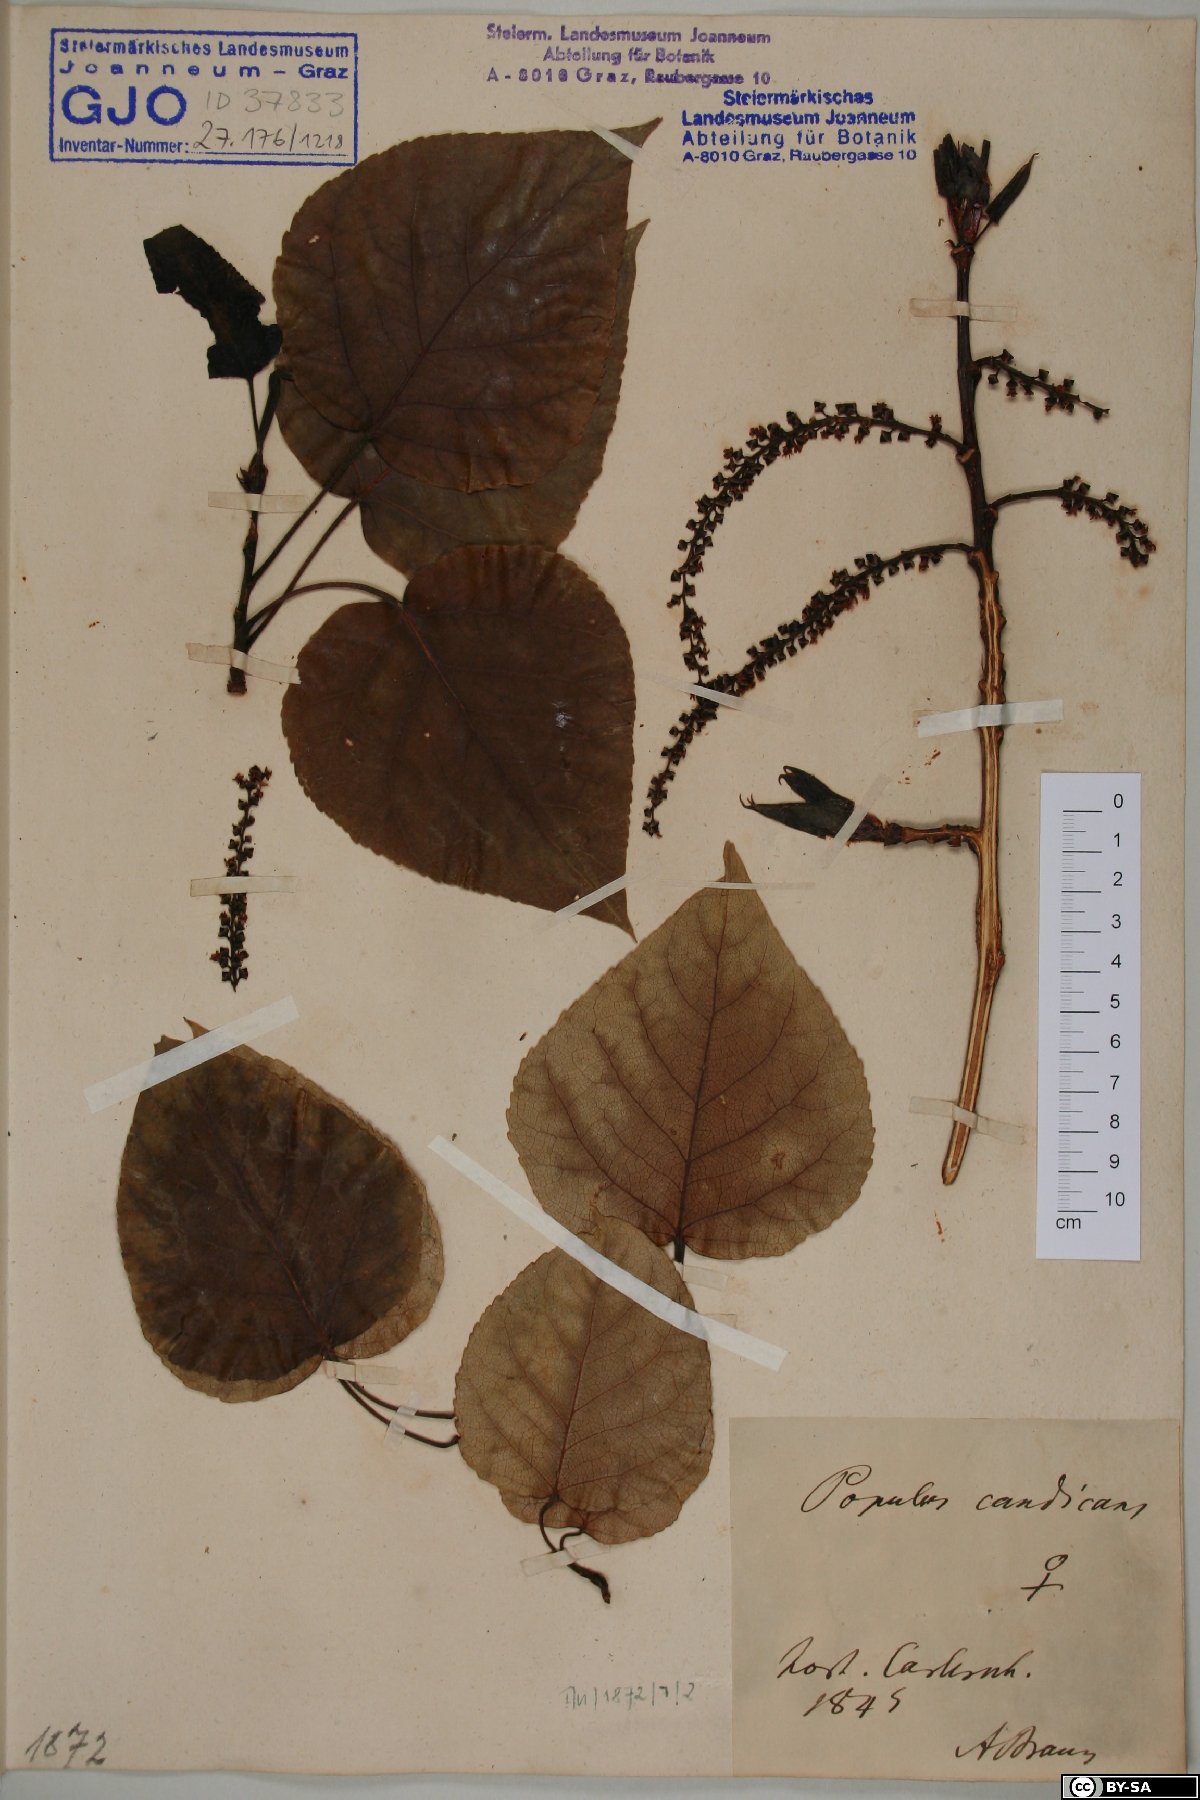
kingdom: Plantae
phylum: Tracheophyta
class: Magnoliopsida
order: Malpighiales
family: Salicaceae
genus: Populus
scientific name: Populus balsamifera
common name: Balsam poplar
